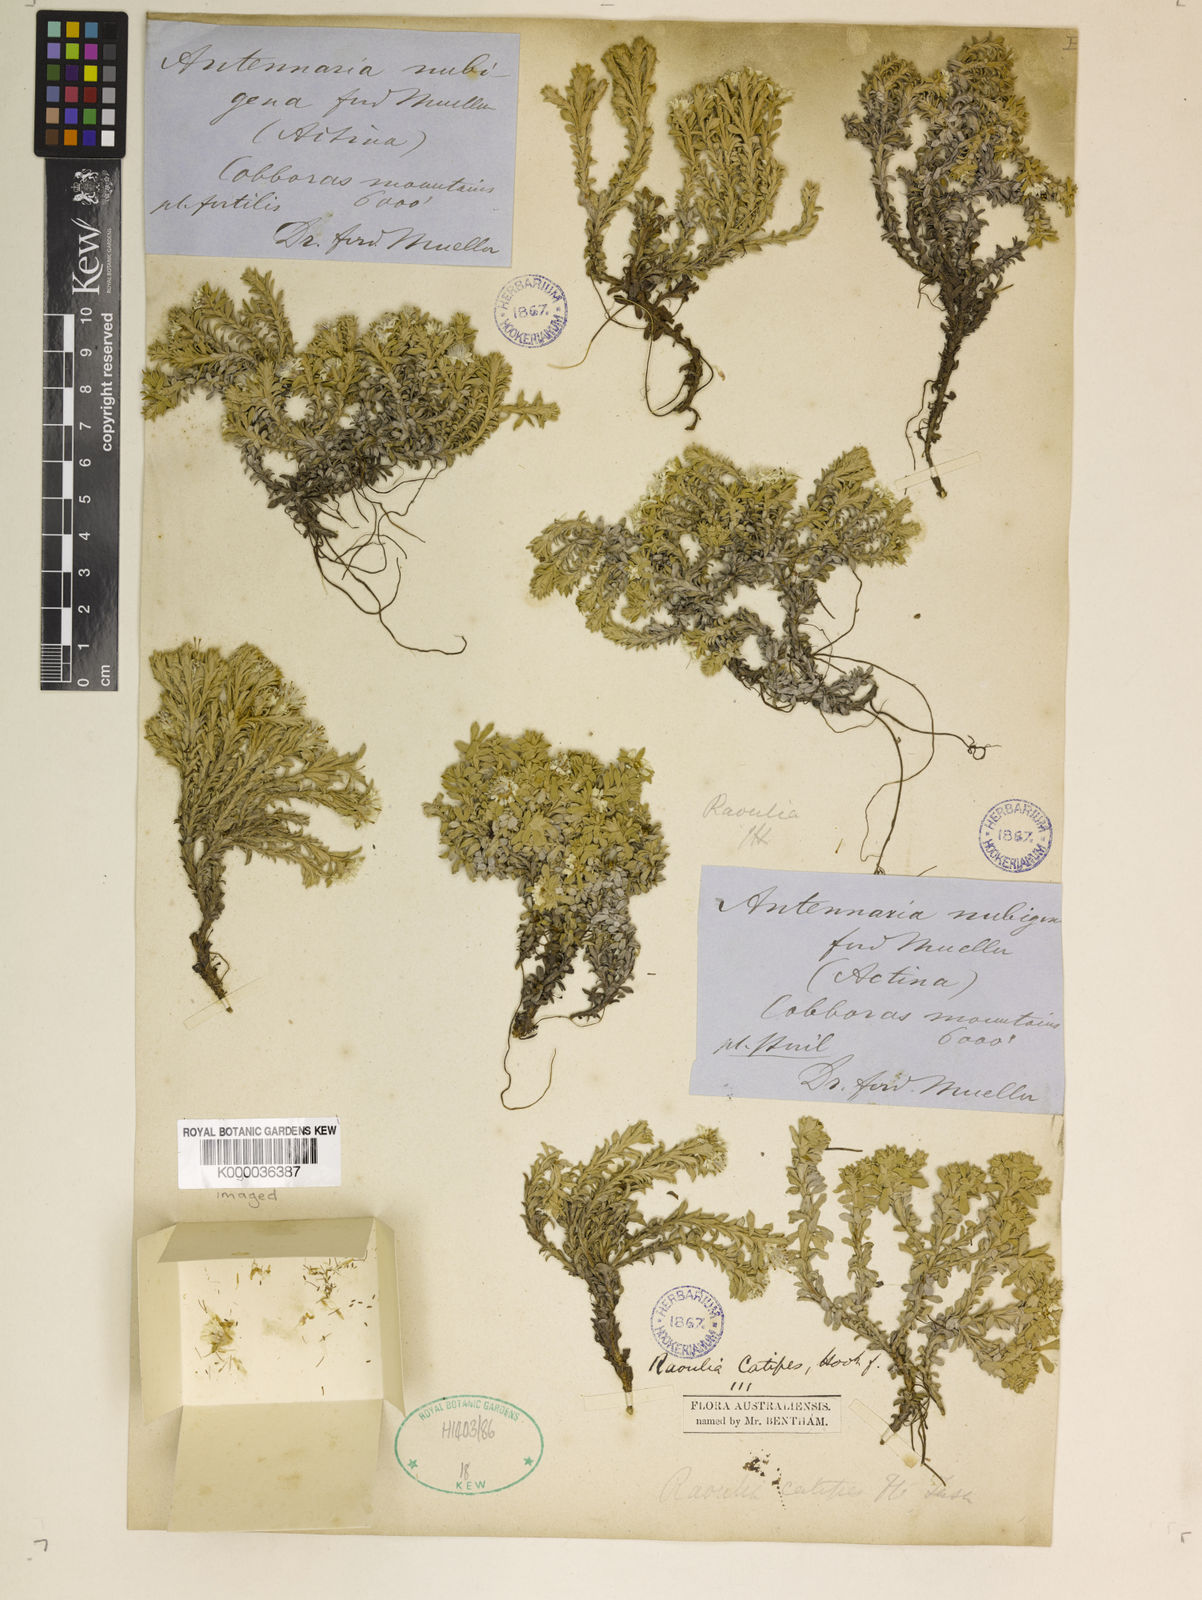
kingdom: Plantae
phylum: Tracheophyta
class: Magnoliopsida
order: Asterales
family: Asteraceae
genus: Ewartia
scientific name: Ewartia nubigena
